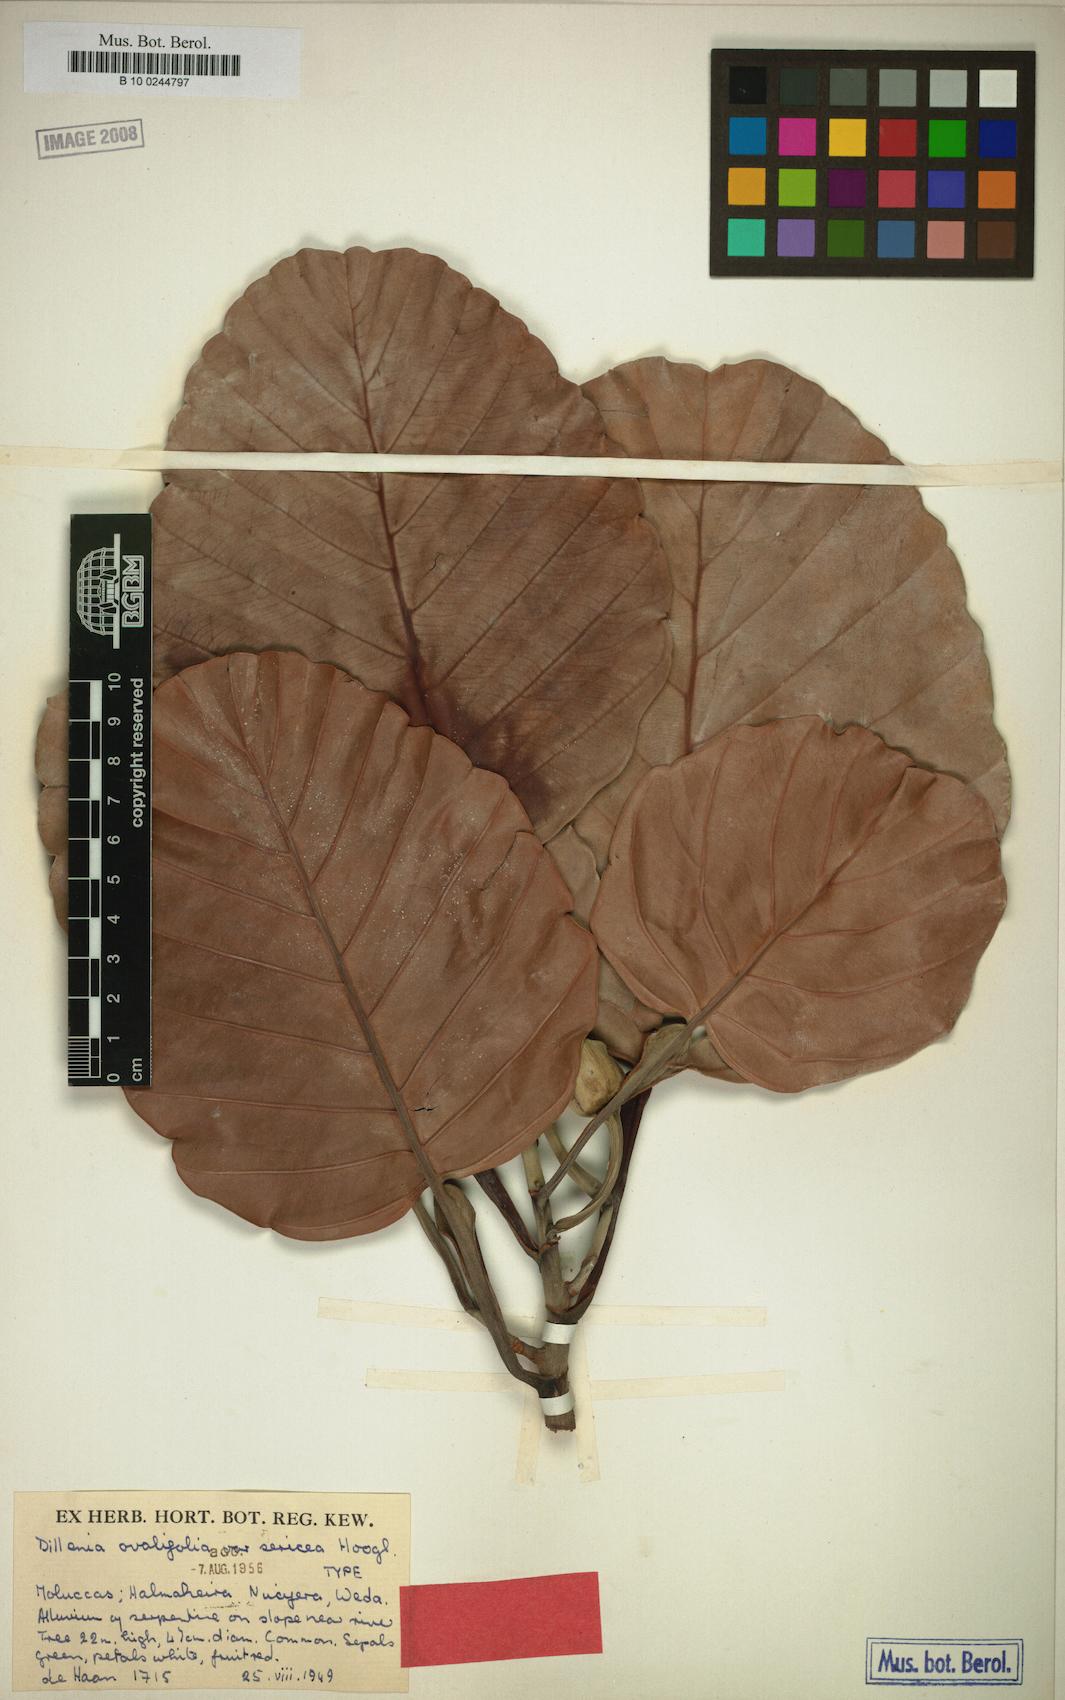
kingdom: Plantae
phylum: Tracheophyta
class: Magnoliopsida
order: Dilleniales
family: Dilleniaceae
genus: Dillenia
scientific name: Dillenia ovalifolia
